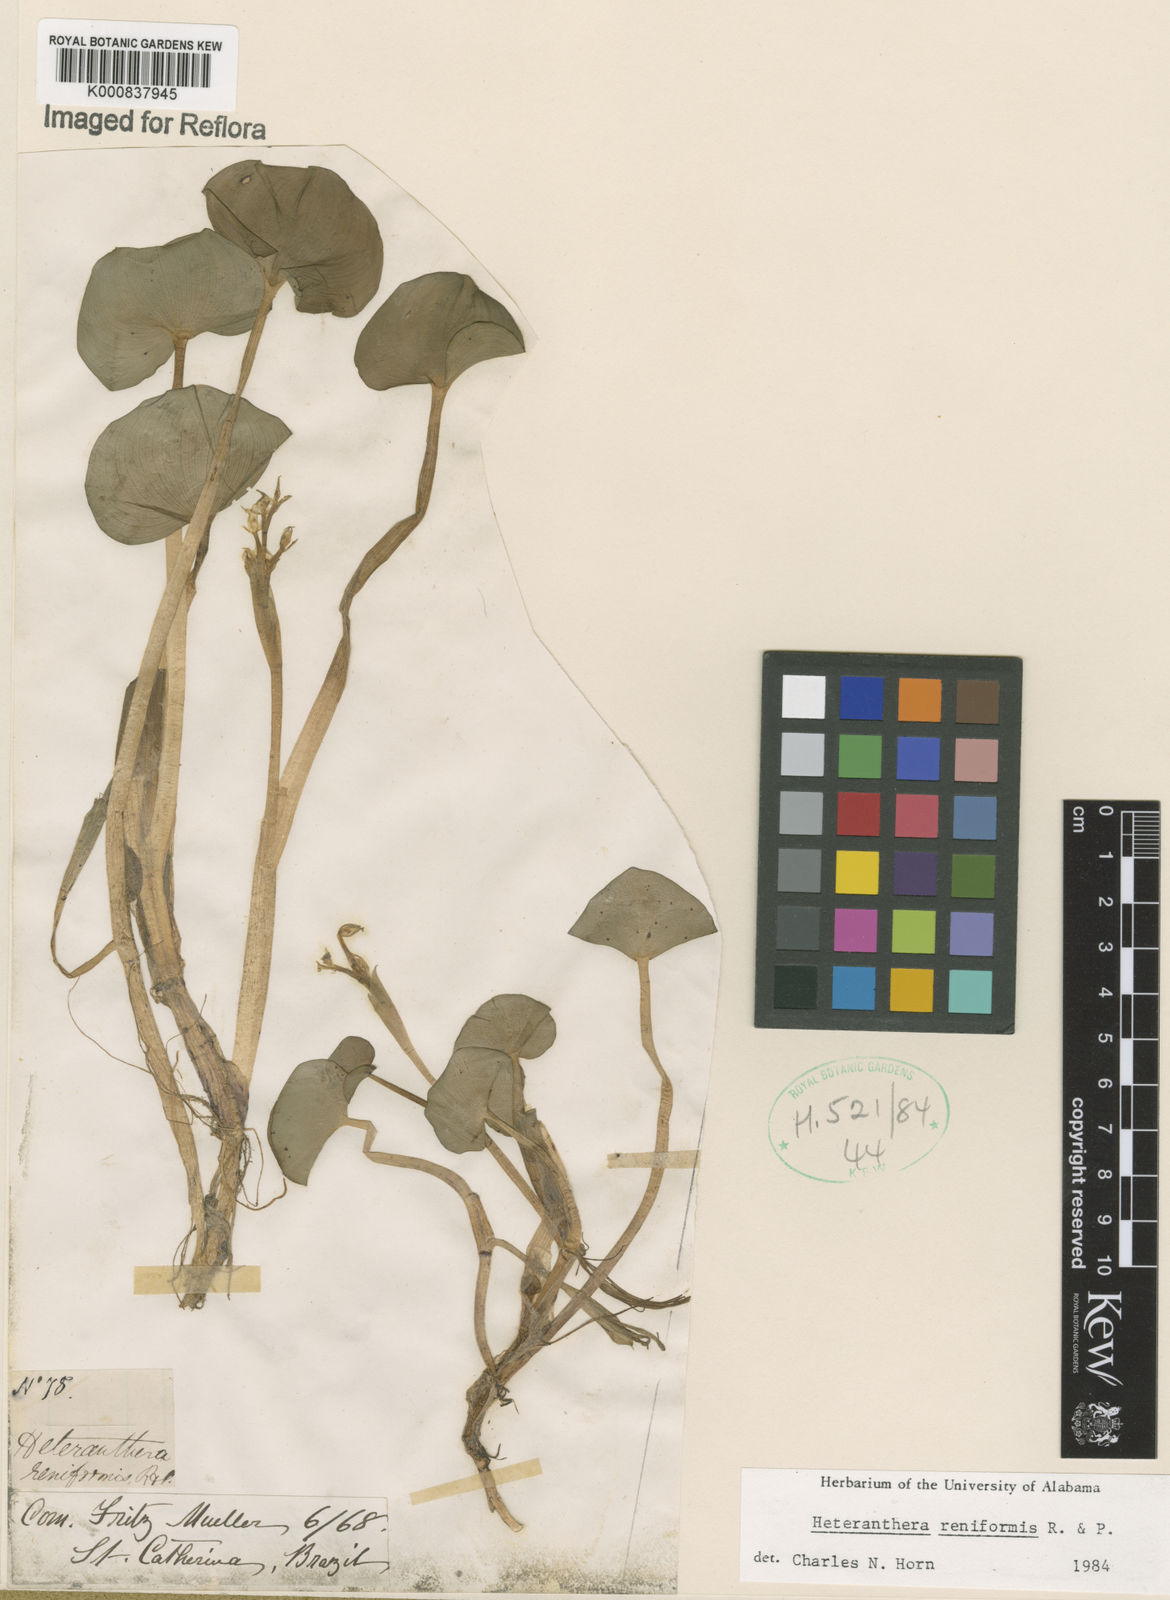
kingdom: Plantae
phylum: Tracheophyta
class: Liliopsida
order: Commelinales
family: Pontederiaceae
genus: Heteranthera
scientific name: Heteranthera reniformis
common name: Kidneyleaf mudplantain
